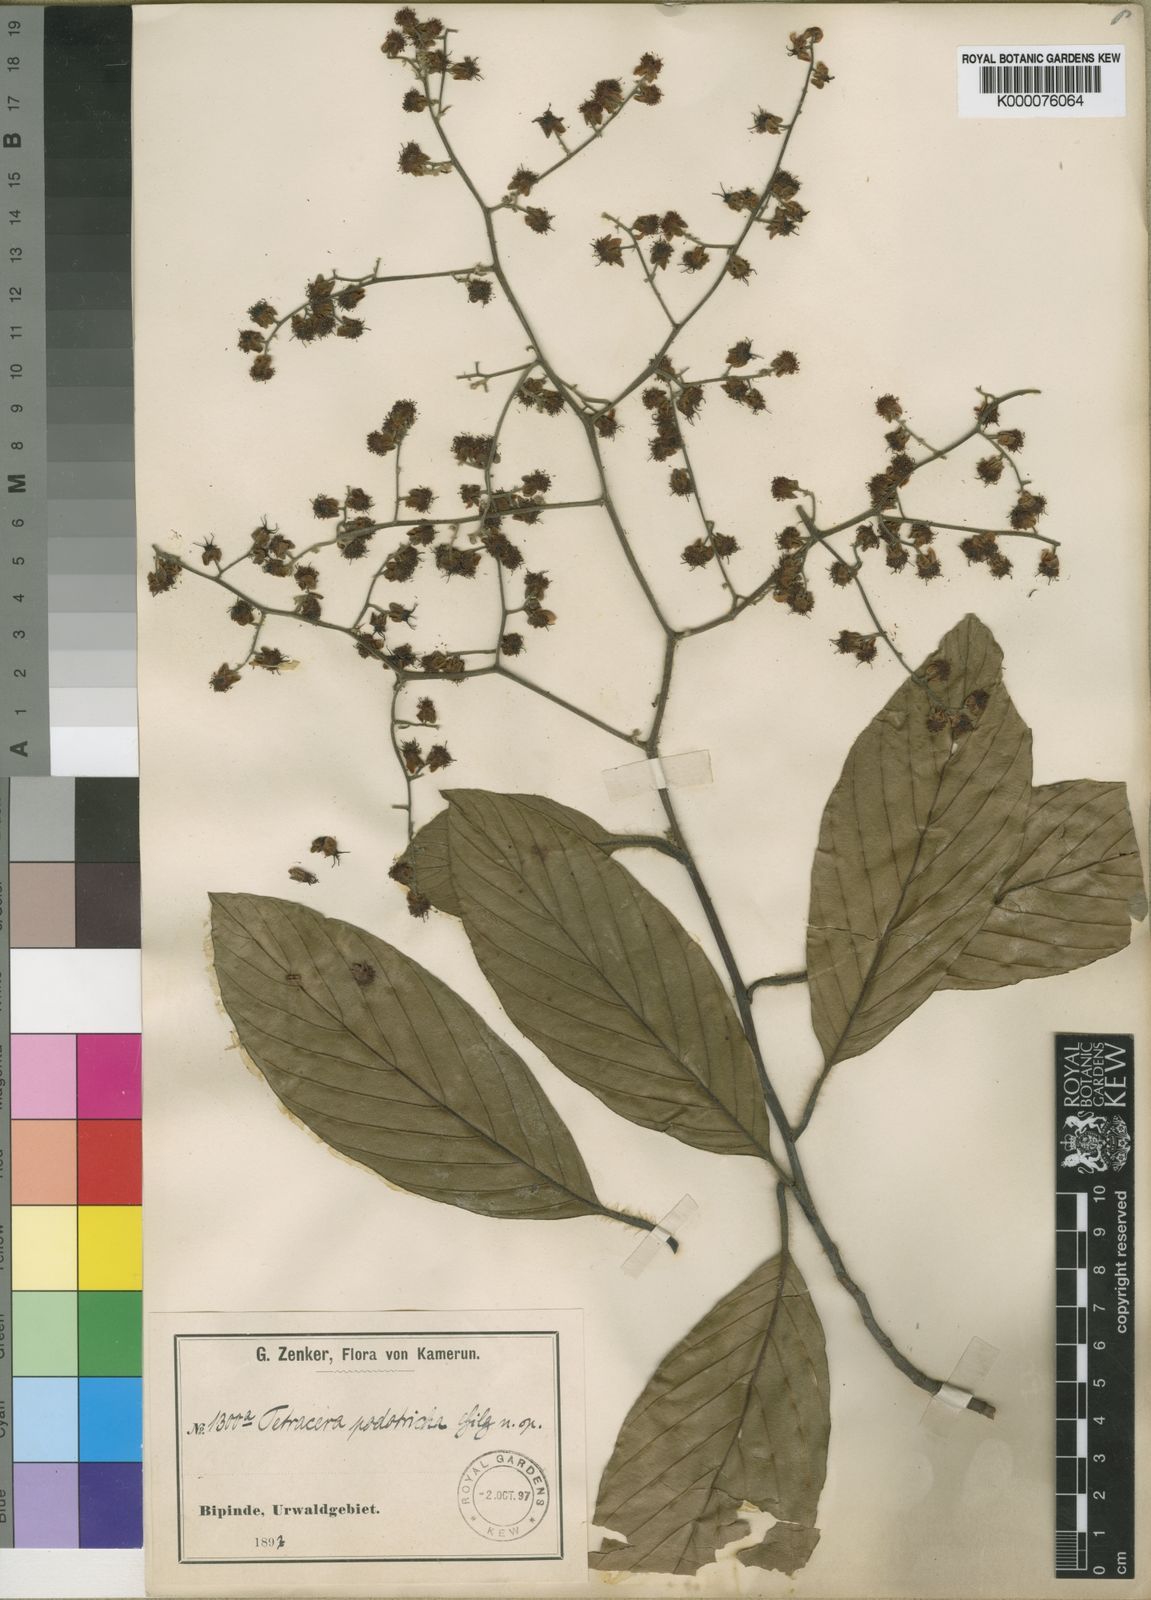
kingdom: Plantae
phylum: Tracheophyta
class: Magnoliopsida
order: Dilleniales
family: Dilleniaceae
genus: Tetracera
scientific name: Tetracera alnifolia
